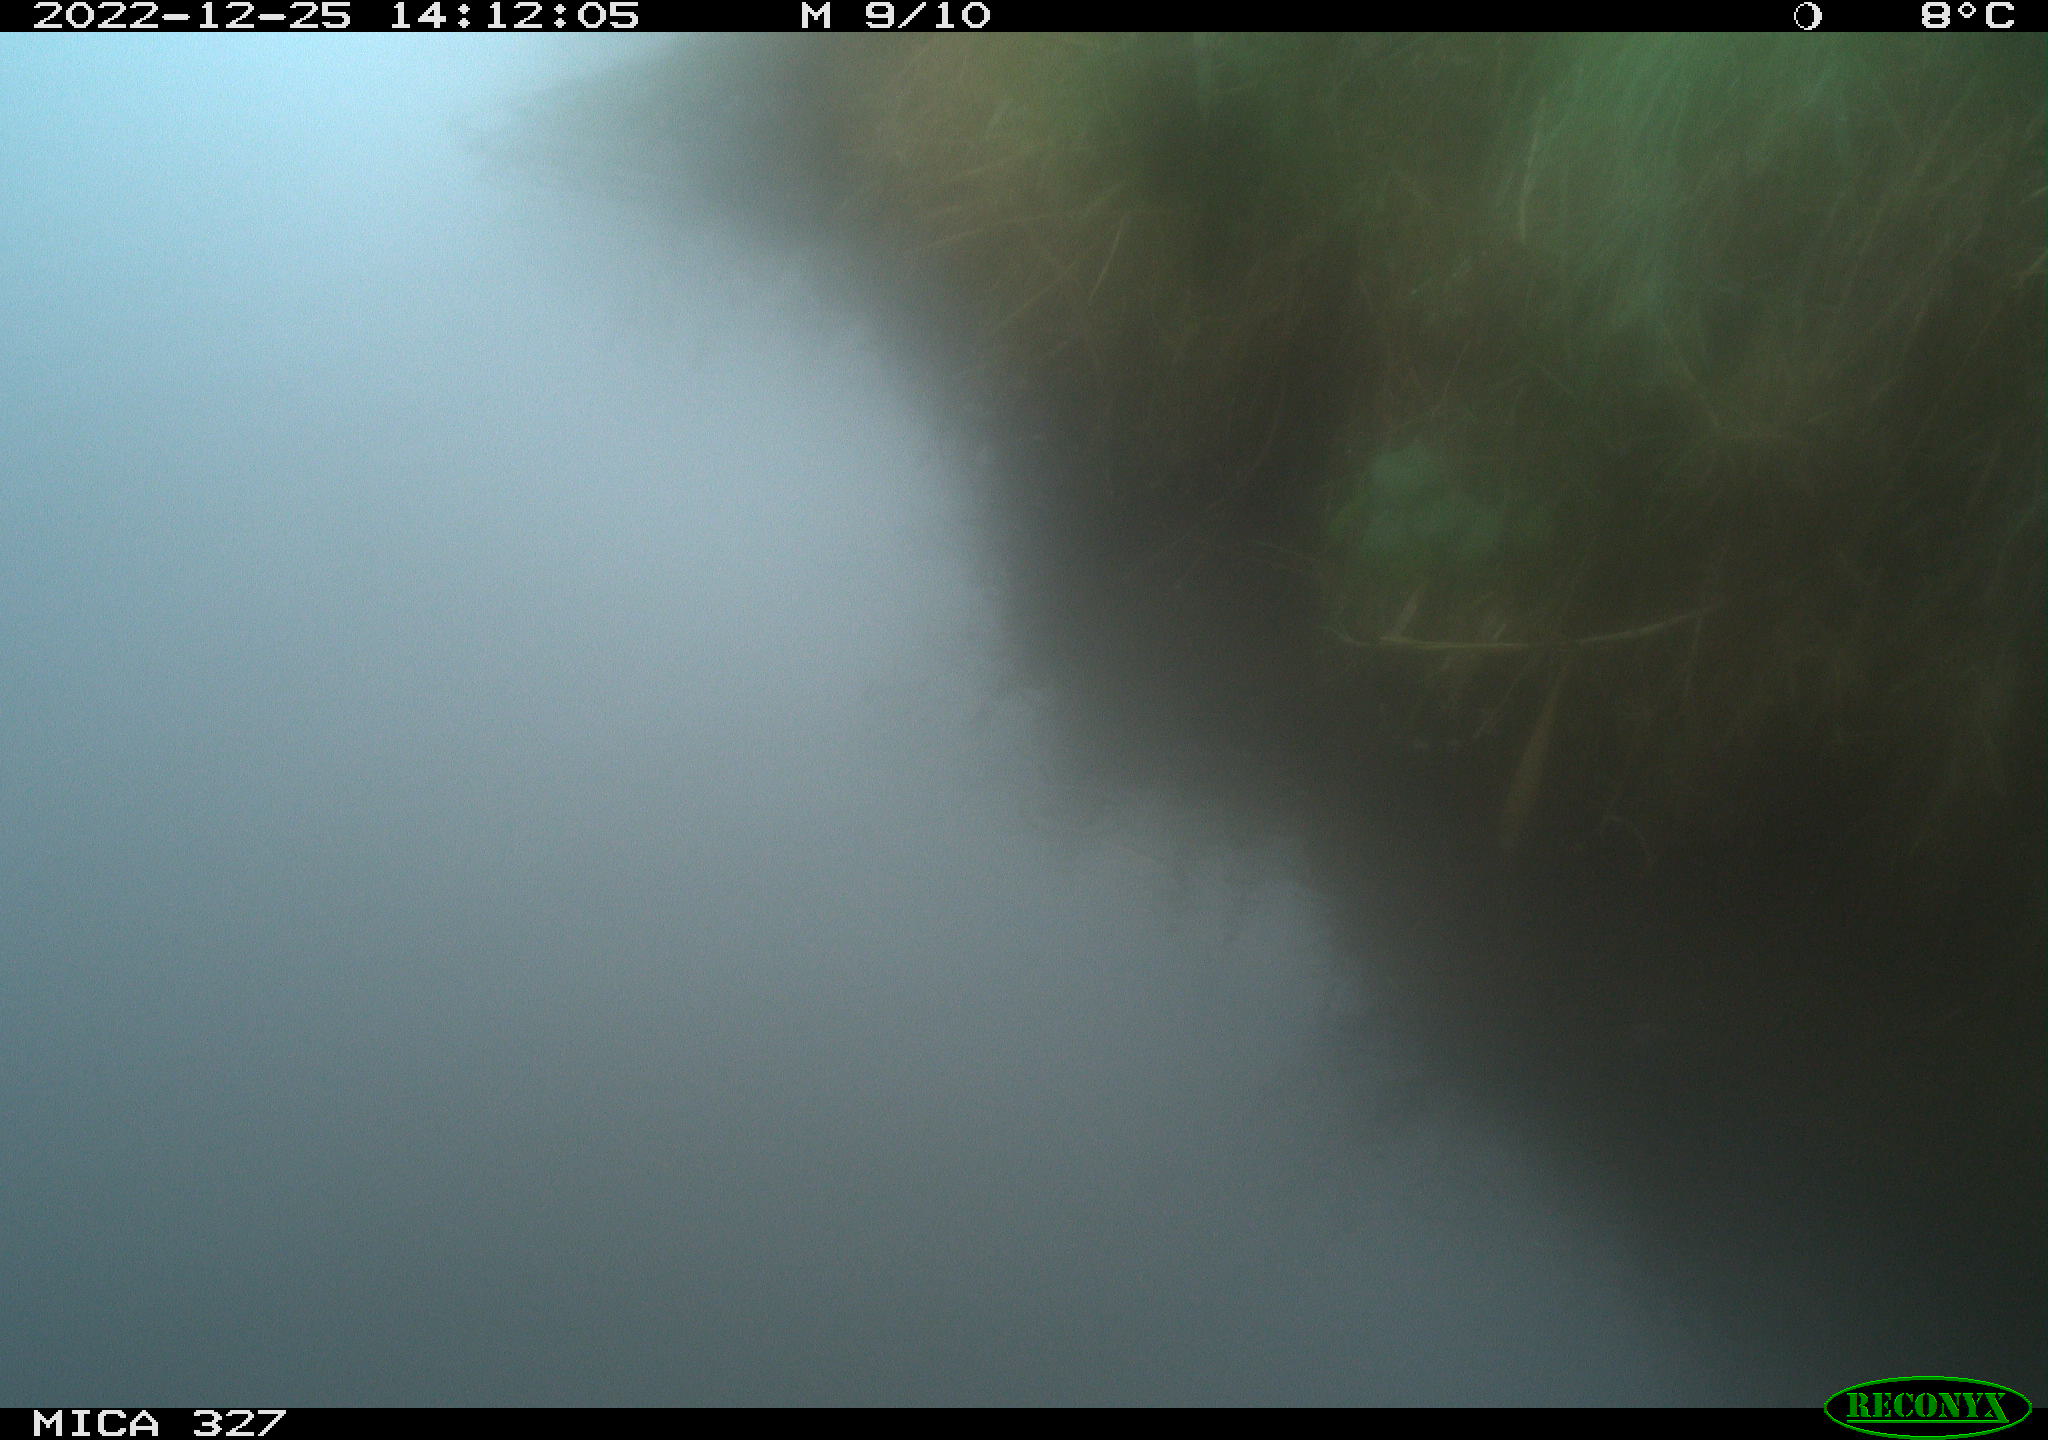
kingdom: Animalia
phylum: Chordata
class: Aves
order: Gruiformes
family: Rallidae
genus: Fulica
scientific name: Fulica atra
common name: Eurasian coot
